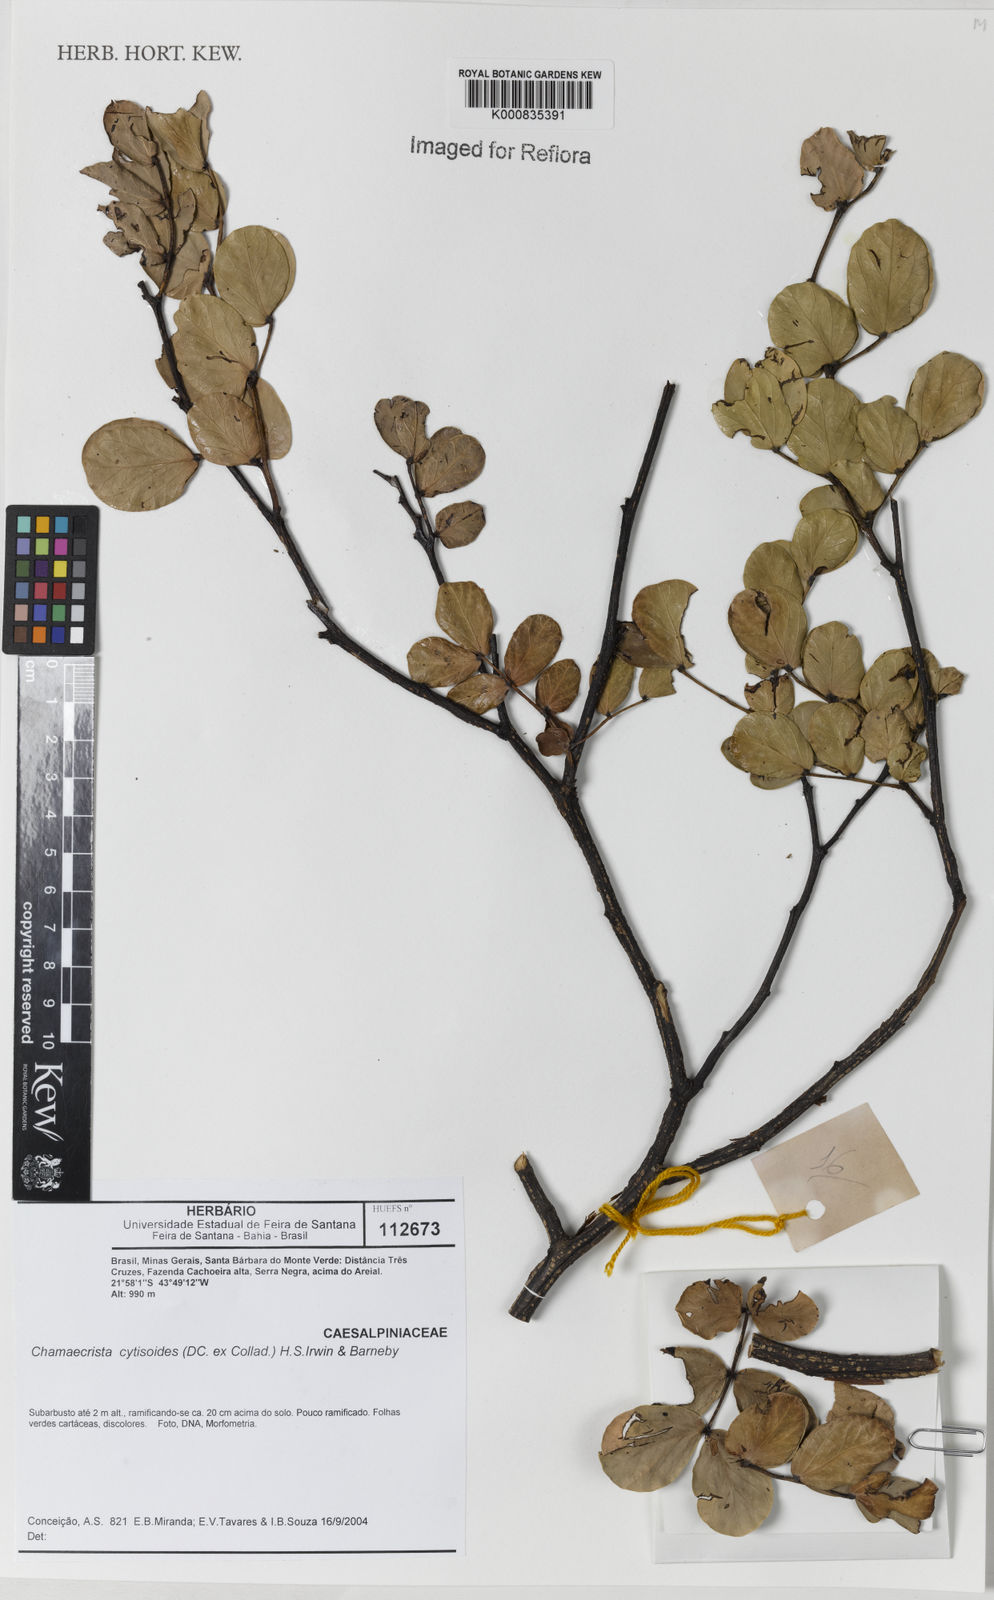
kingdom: Plantae
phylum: Tracheophyta
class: Magnoliopsida
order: Fabales
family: Fabaceae
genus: Chamaecrista
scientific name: Chamaecrista cytisoides
